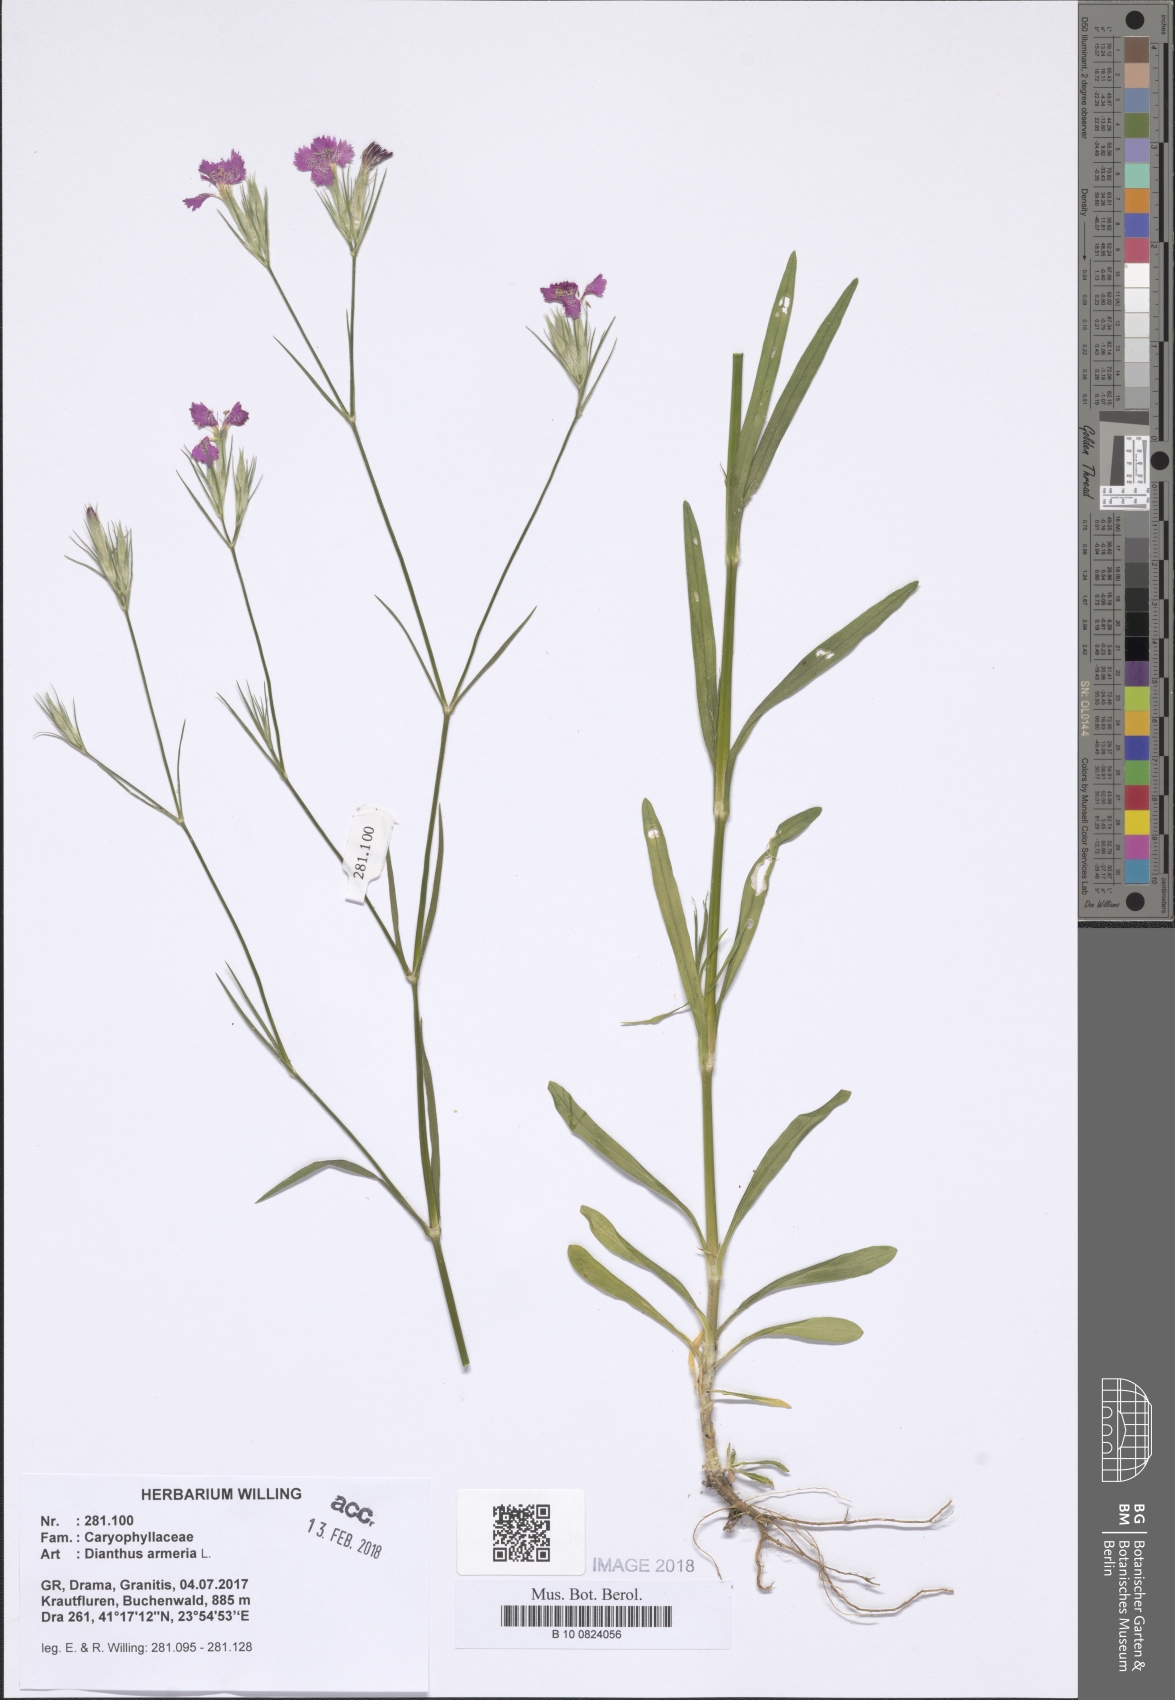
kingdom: Plantae
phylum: Tracheophyta
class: Magnoliopsida
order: Caryophyllales
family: Caryophyllaceae
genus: Dianthus
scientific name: Dianthus armeria
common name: Deptford pink
